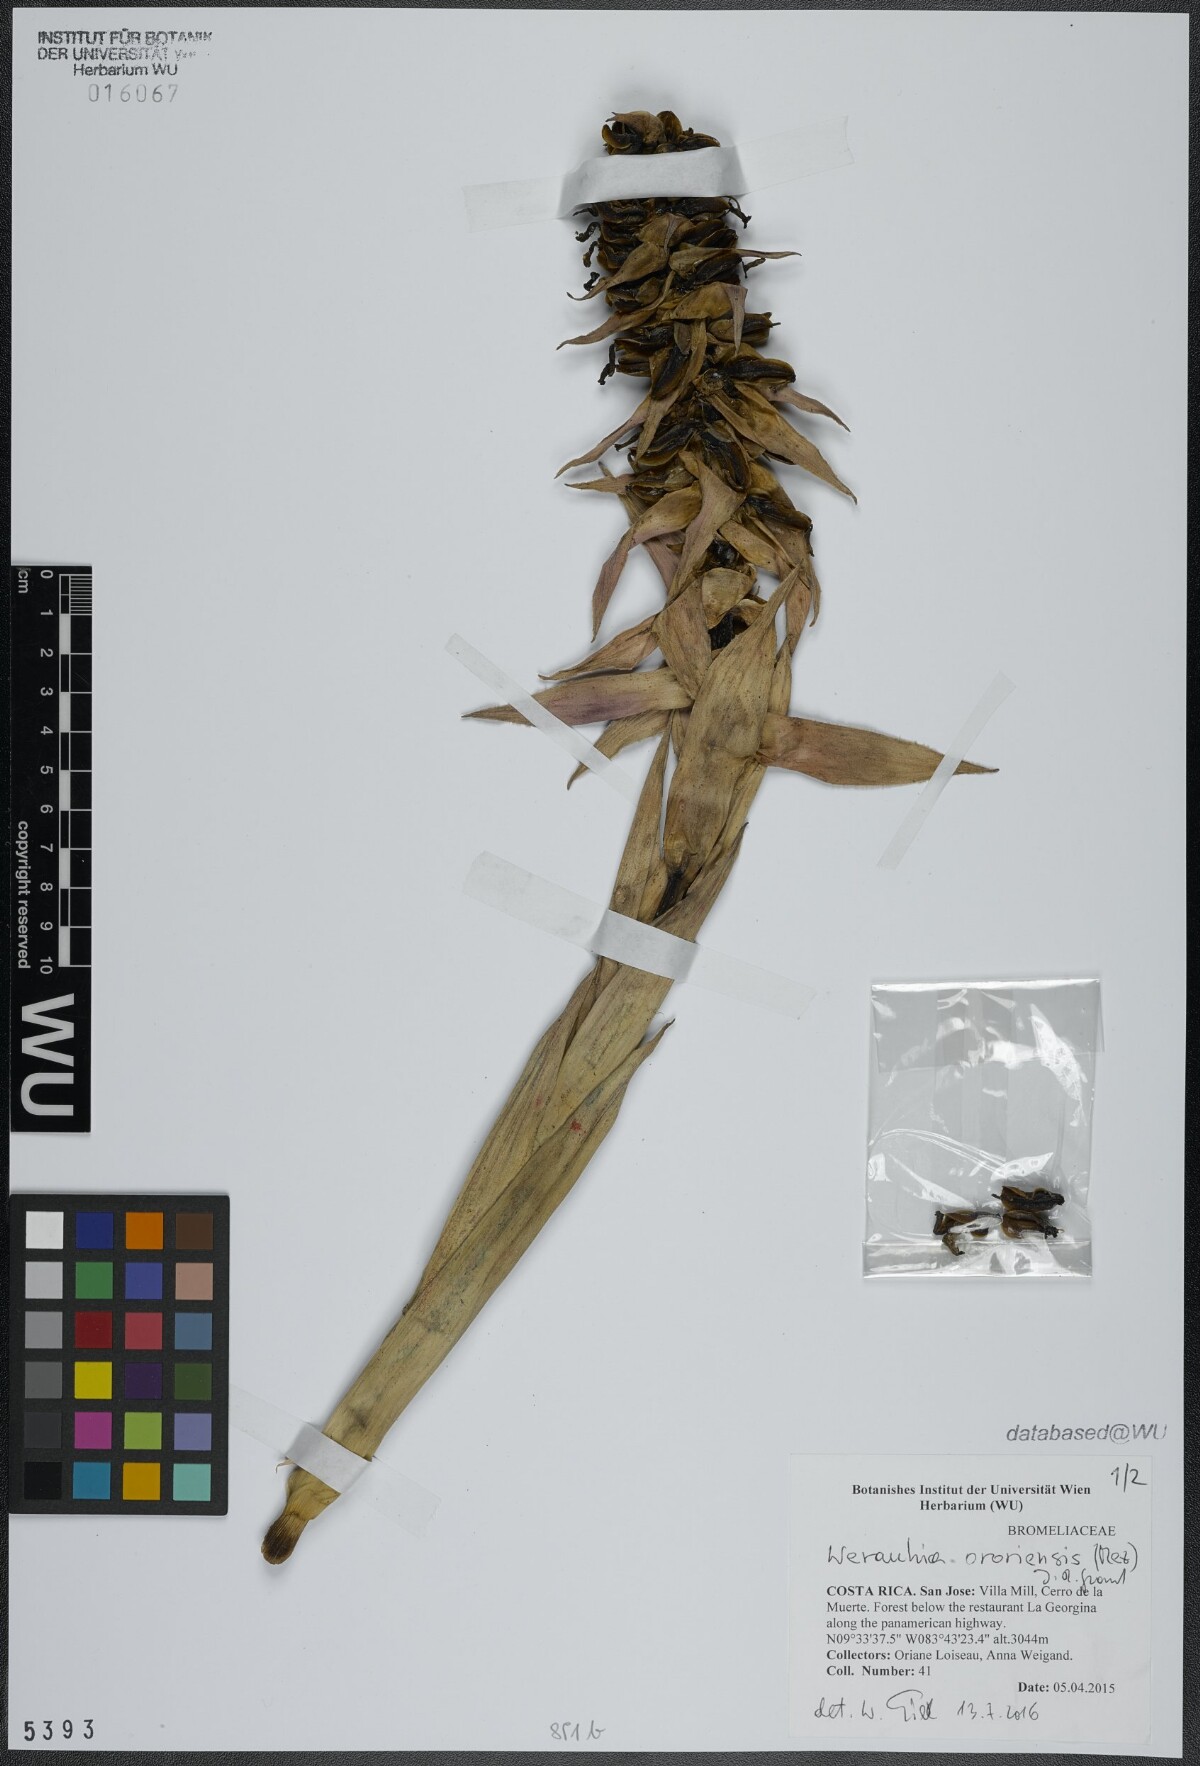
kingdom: Plantae
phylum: Tracheophyta
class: Liliopsida
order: Poales
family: Bromeliaceae
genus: Werauhia
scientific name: Werauhia ororiensis
